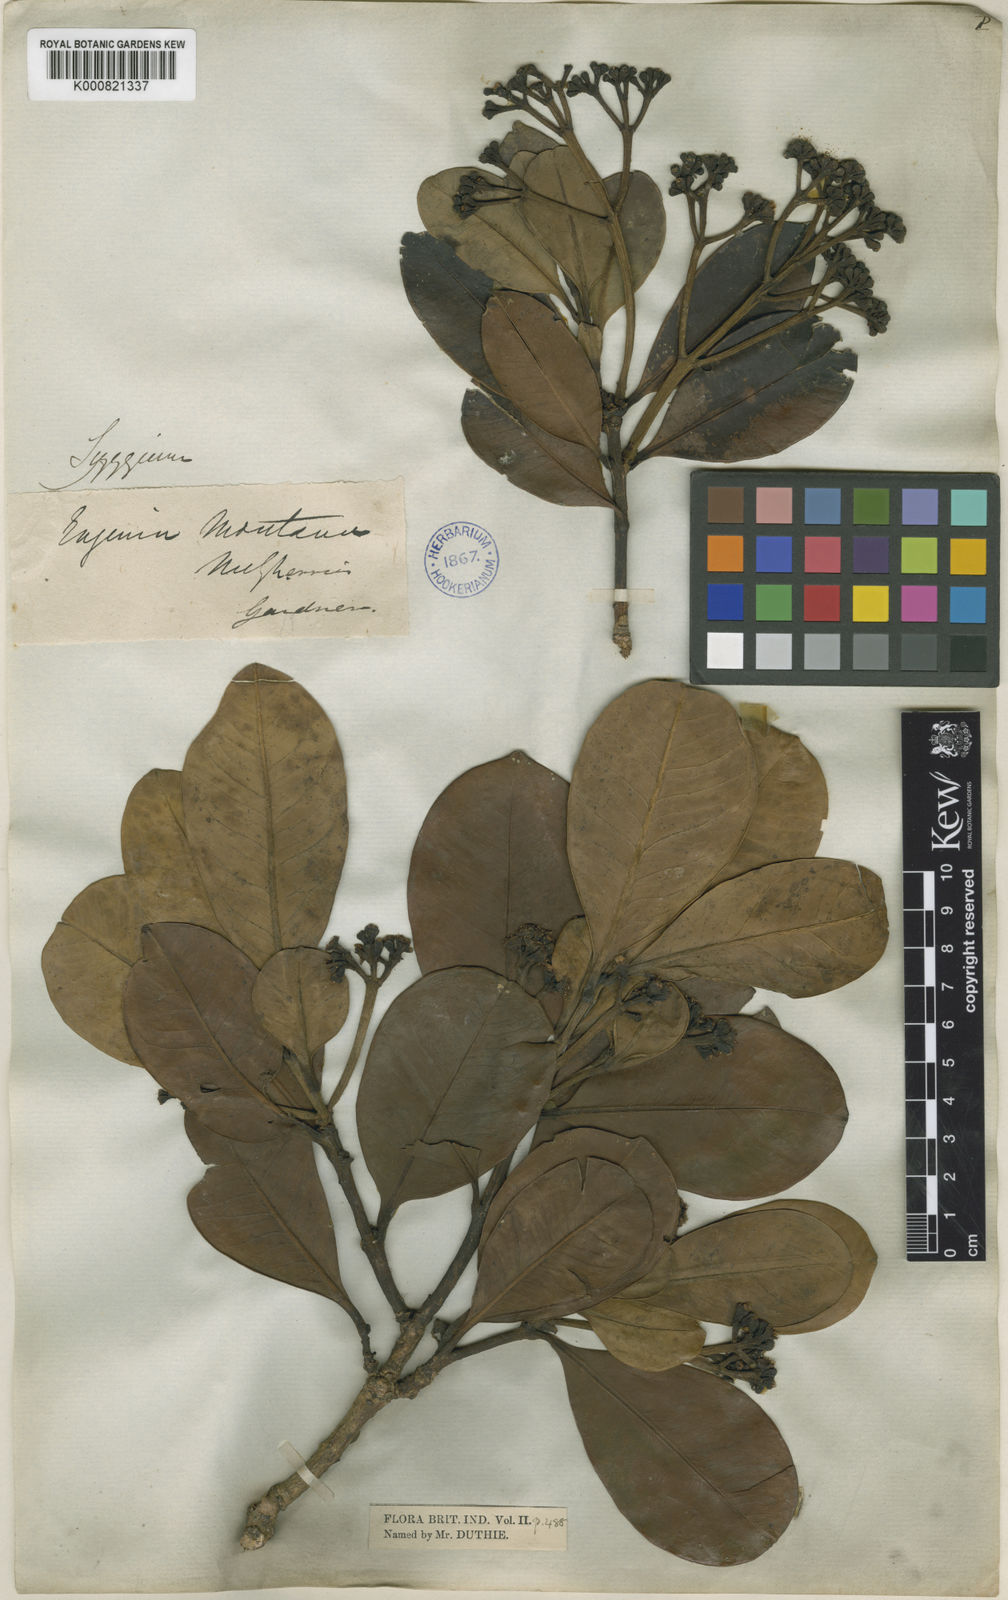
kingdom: Plantae
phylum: Tracheophyta
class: Magnoliopsida
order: Myrtales
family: Myrtaceae
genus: Syzygium
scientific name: Syzygium grande
